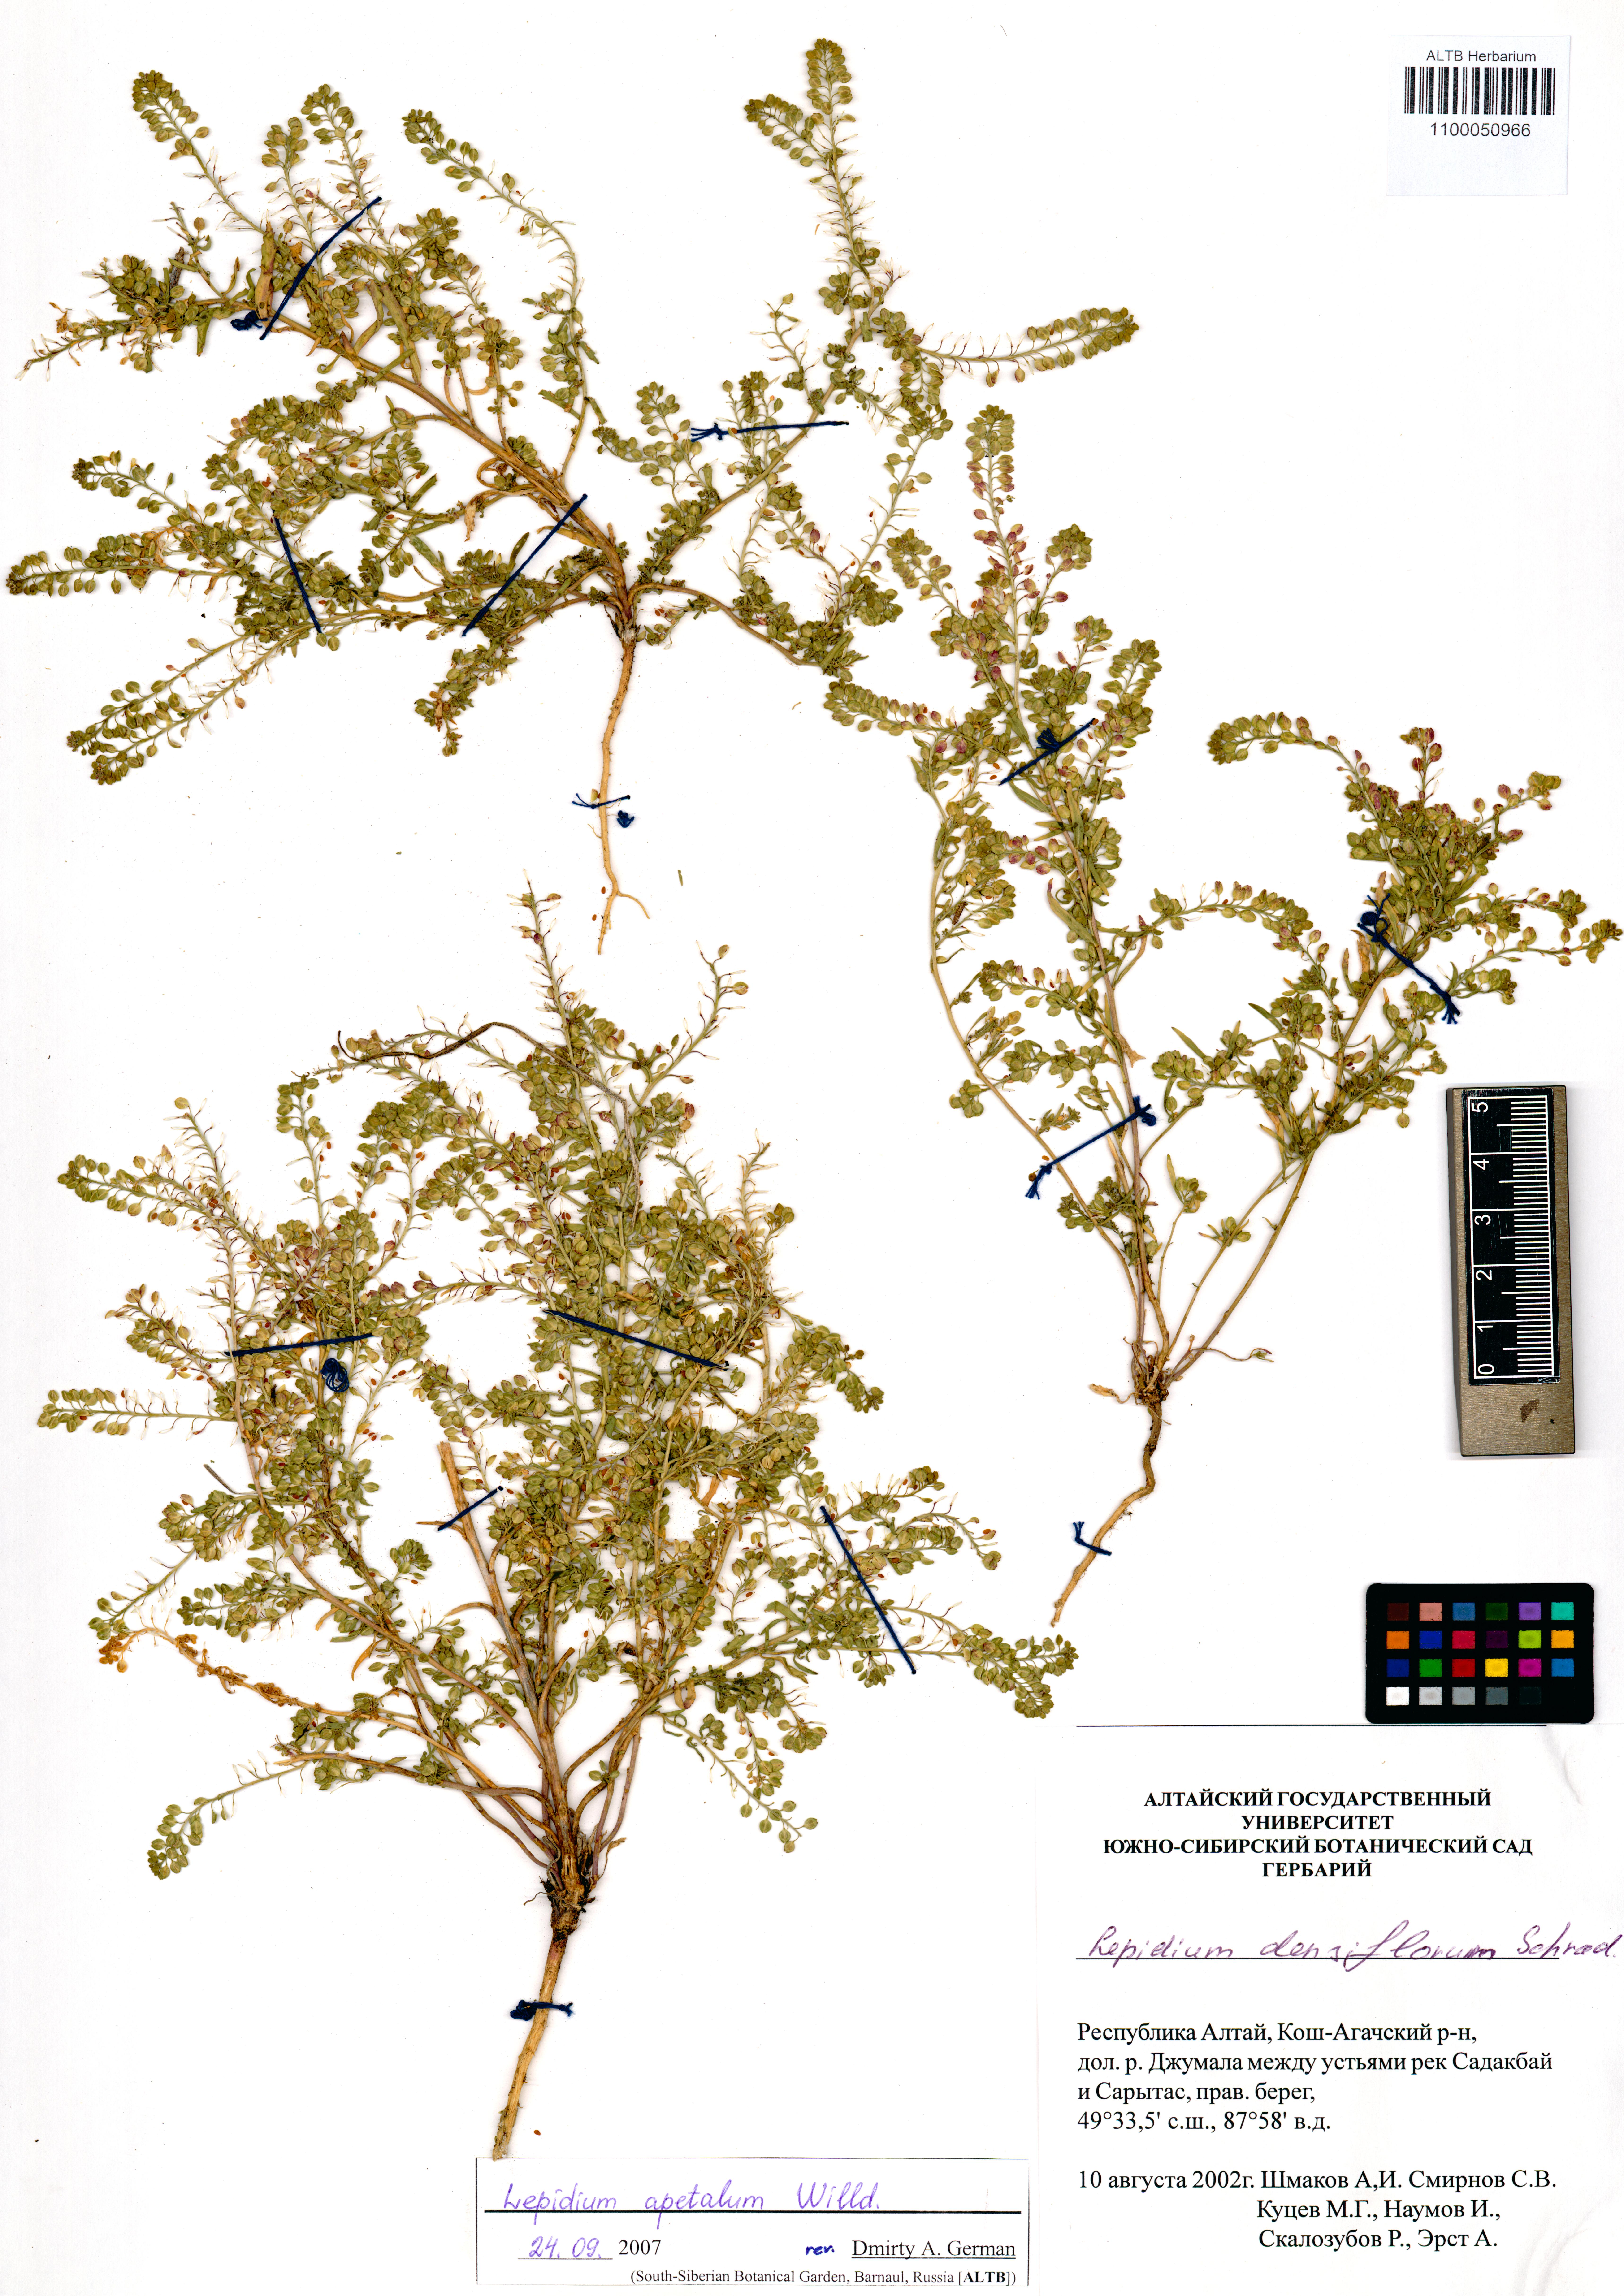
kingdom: Plantae
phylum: Tracheophyta
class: Magnoliopsida
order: Brassicales
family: Brassicaceae
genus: Lepidium
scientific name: Lepidium apetalum
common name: Pepperweed
